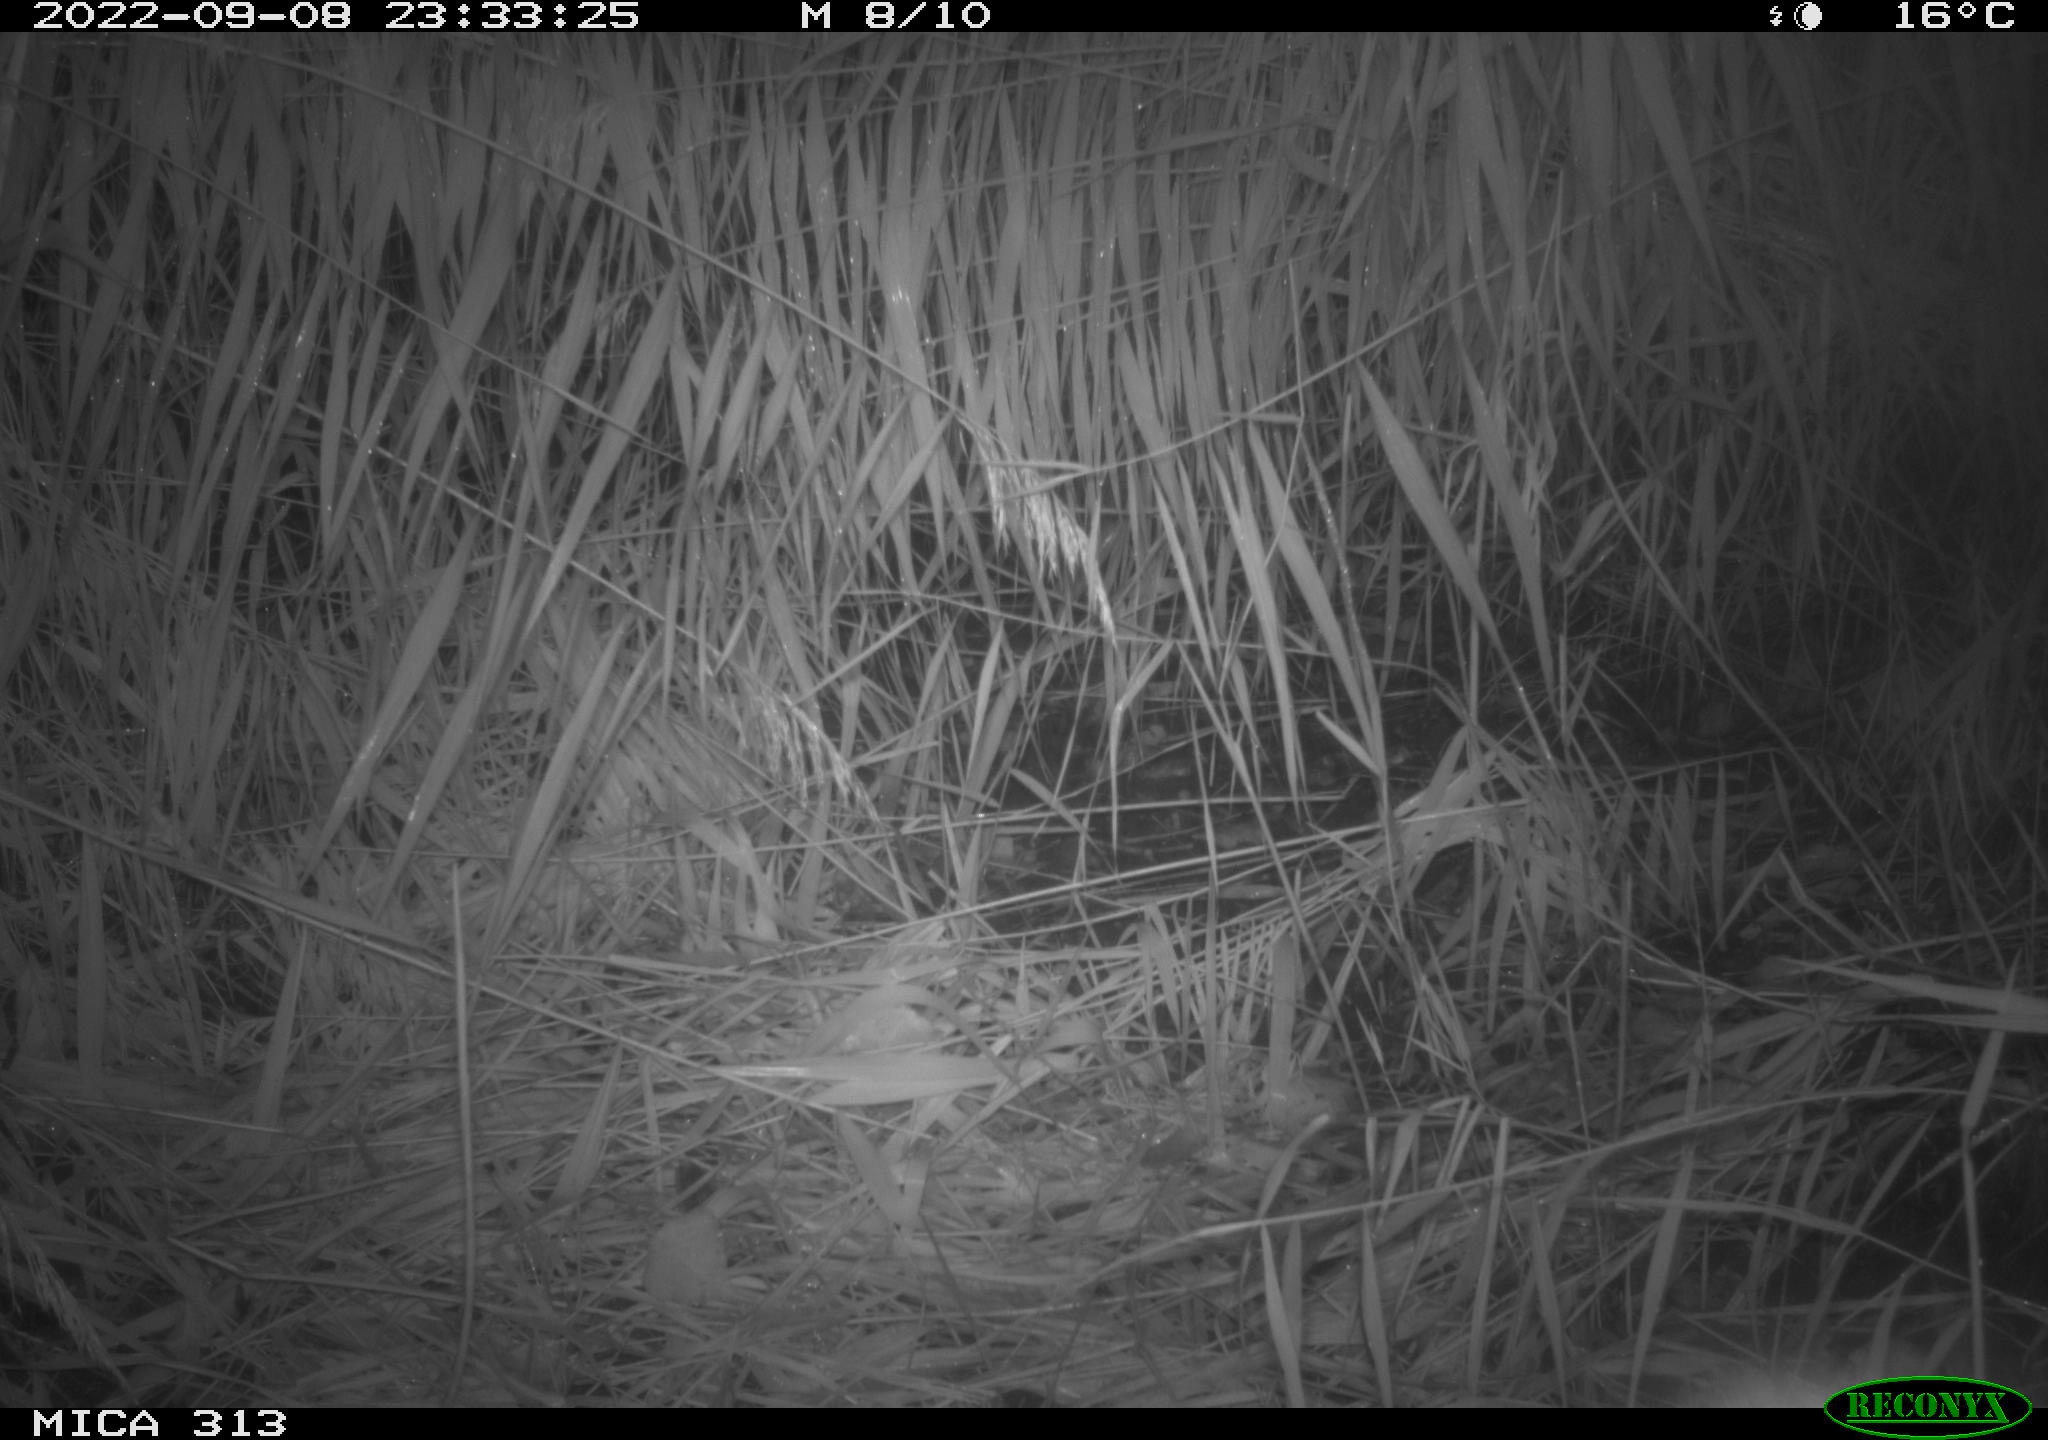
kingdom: Animalia
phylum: Chordata
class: Mammalia
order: Rodentia
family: Muridae
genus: Rattus
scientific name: Rattus norvegicus
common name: Brown rat
